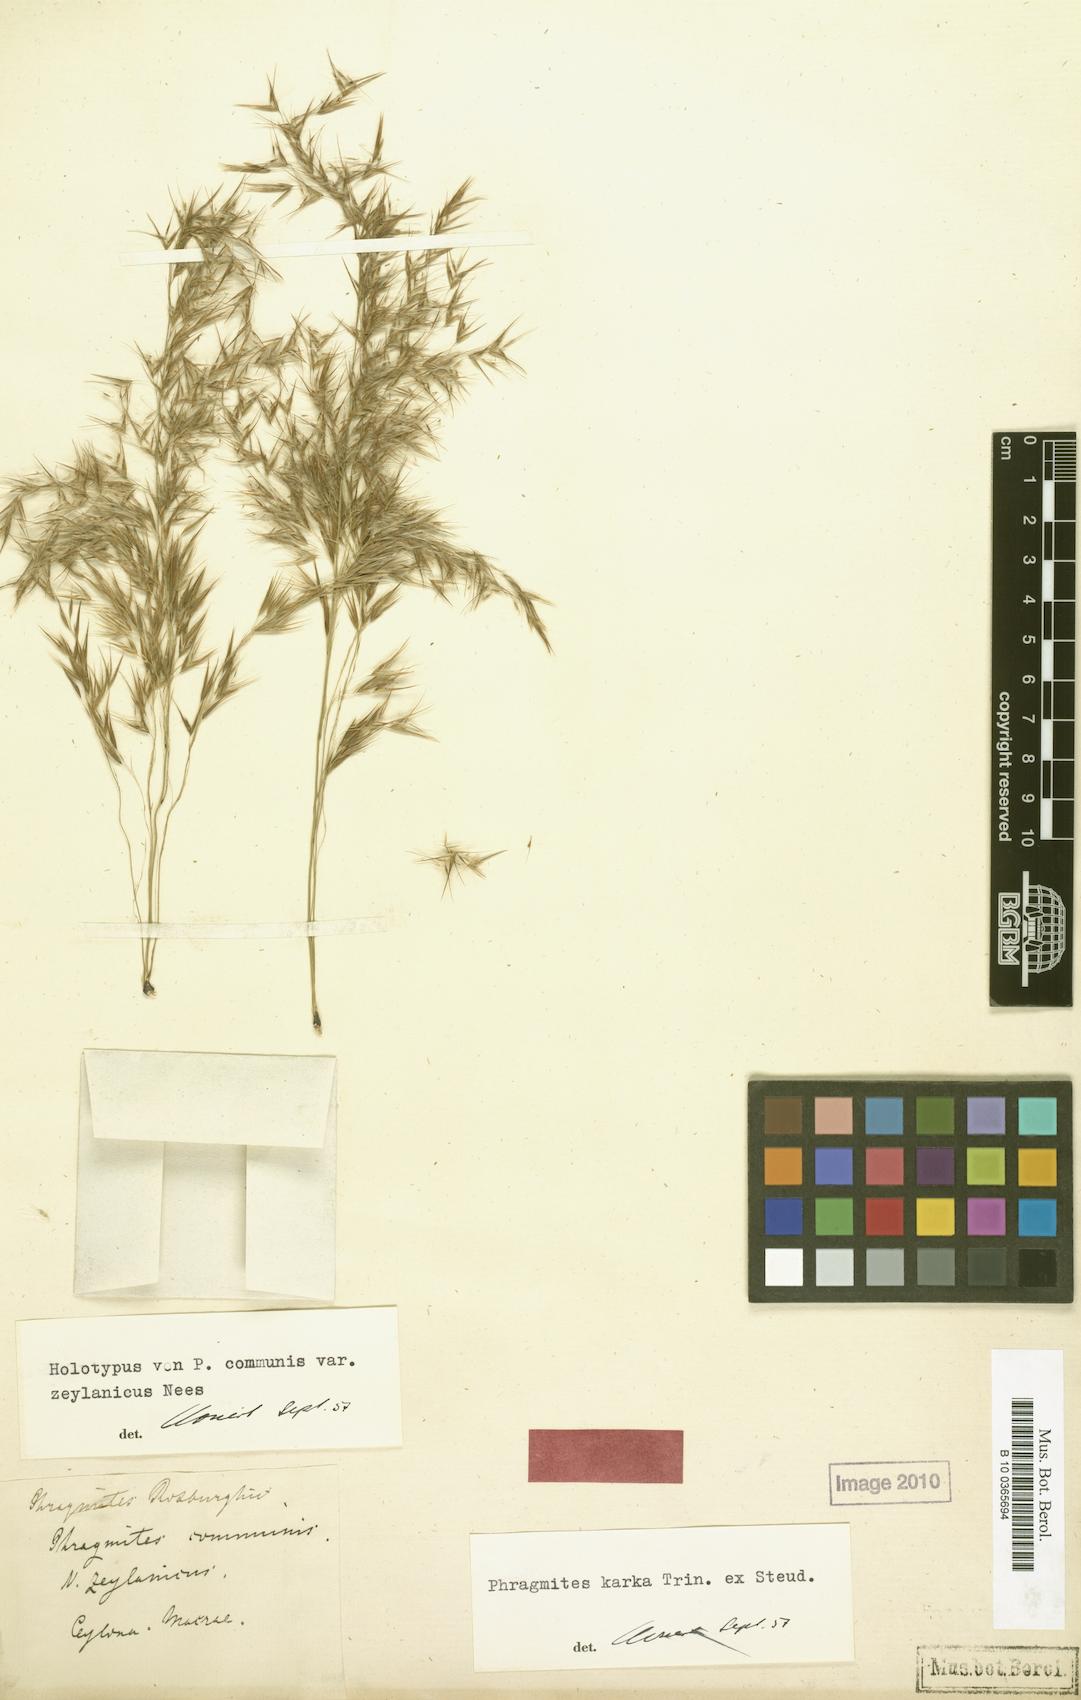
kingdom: Plantae
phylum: Tracheophyta
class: Liliopsida
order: Poales
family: Poaceae
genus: Phragmites
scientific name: Phragmites karka
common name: Tropical reed
